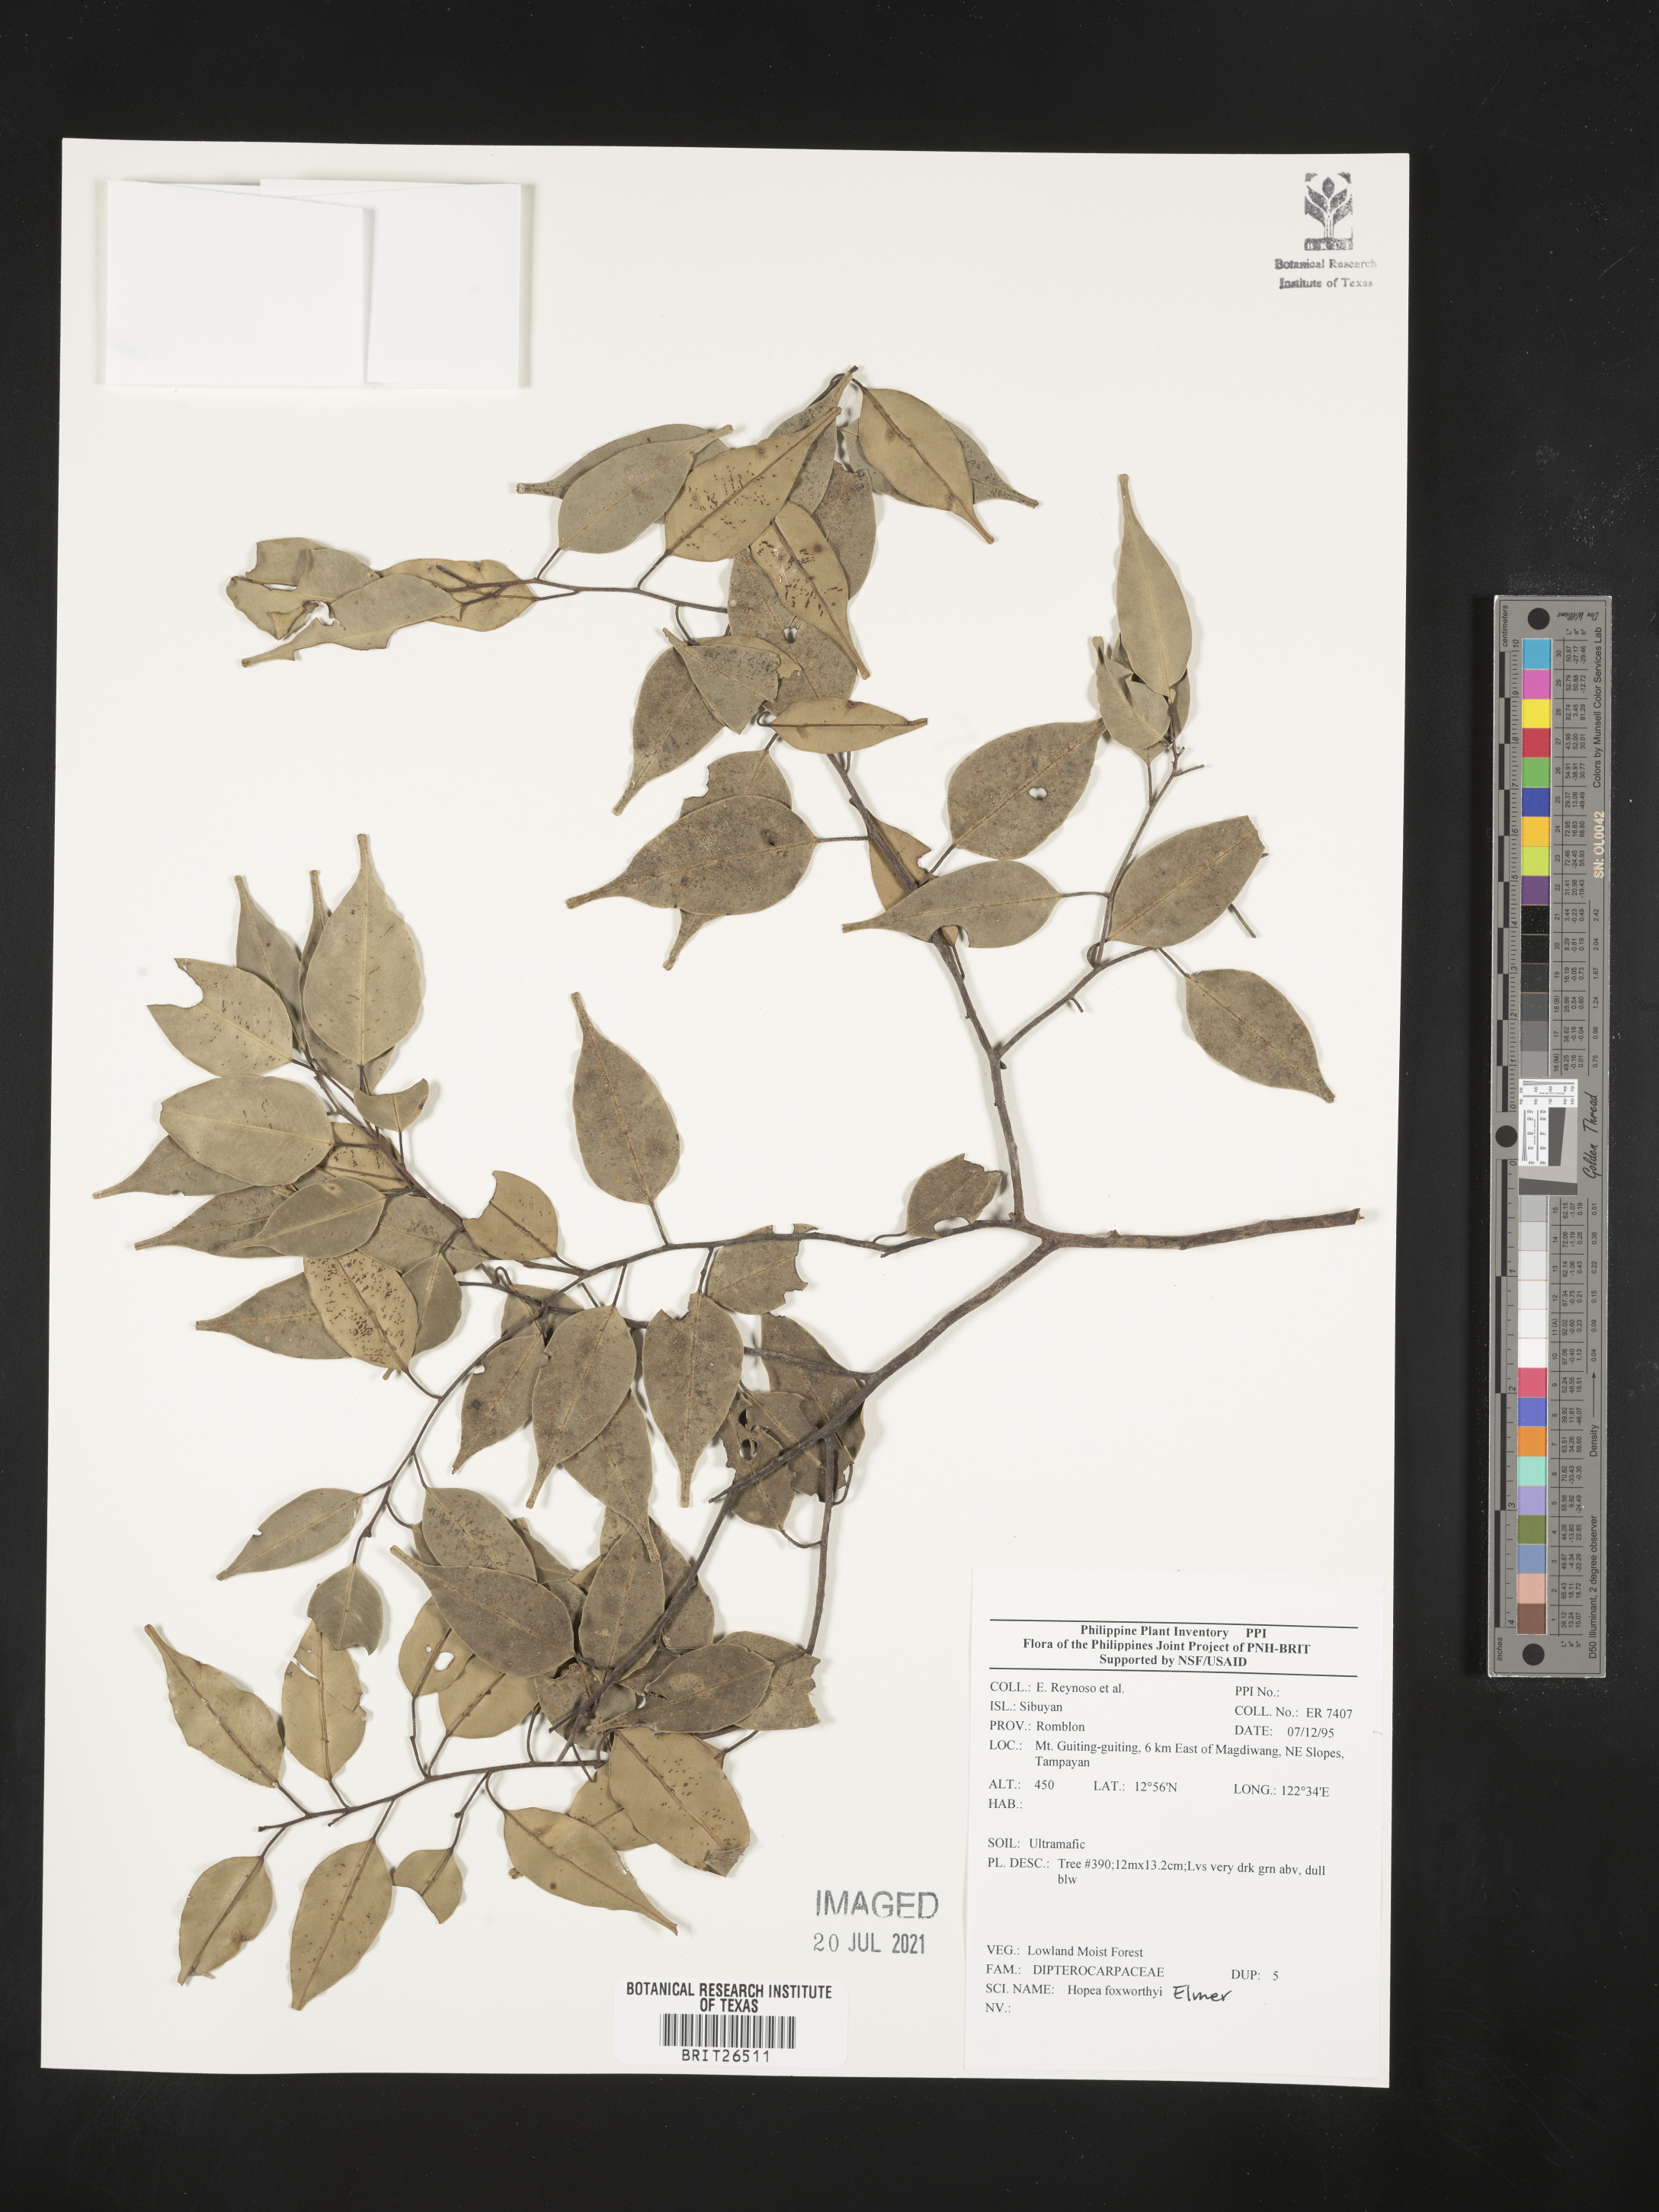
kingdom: Plantae
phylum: Tracheophyta
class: Magnoliopsida
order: Malvales
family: Dipterocarpaceae
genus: Hopea
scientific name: Hopea foxworthyi
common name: Dalingdingan
